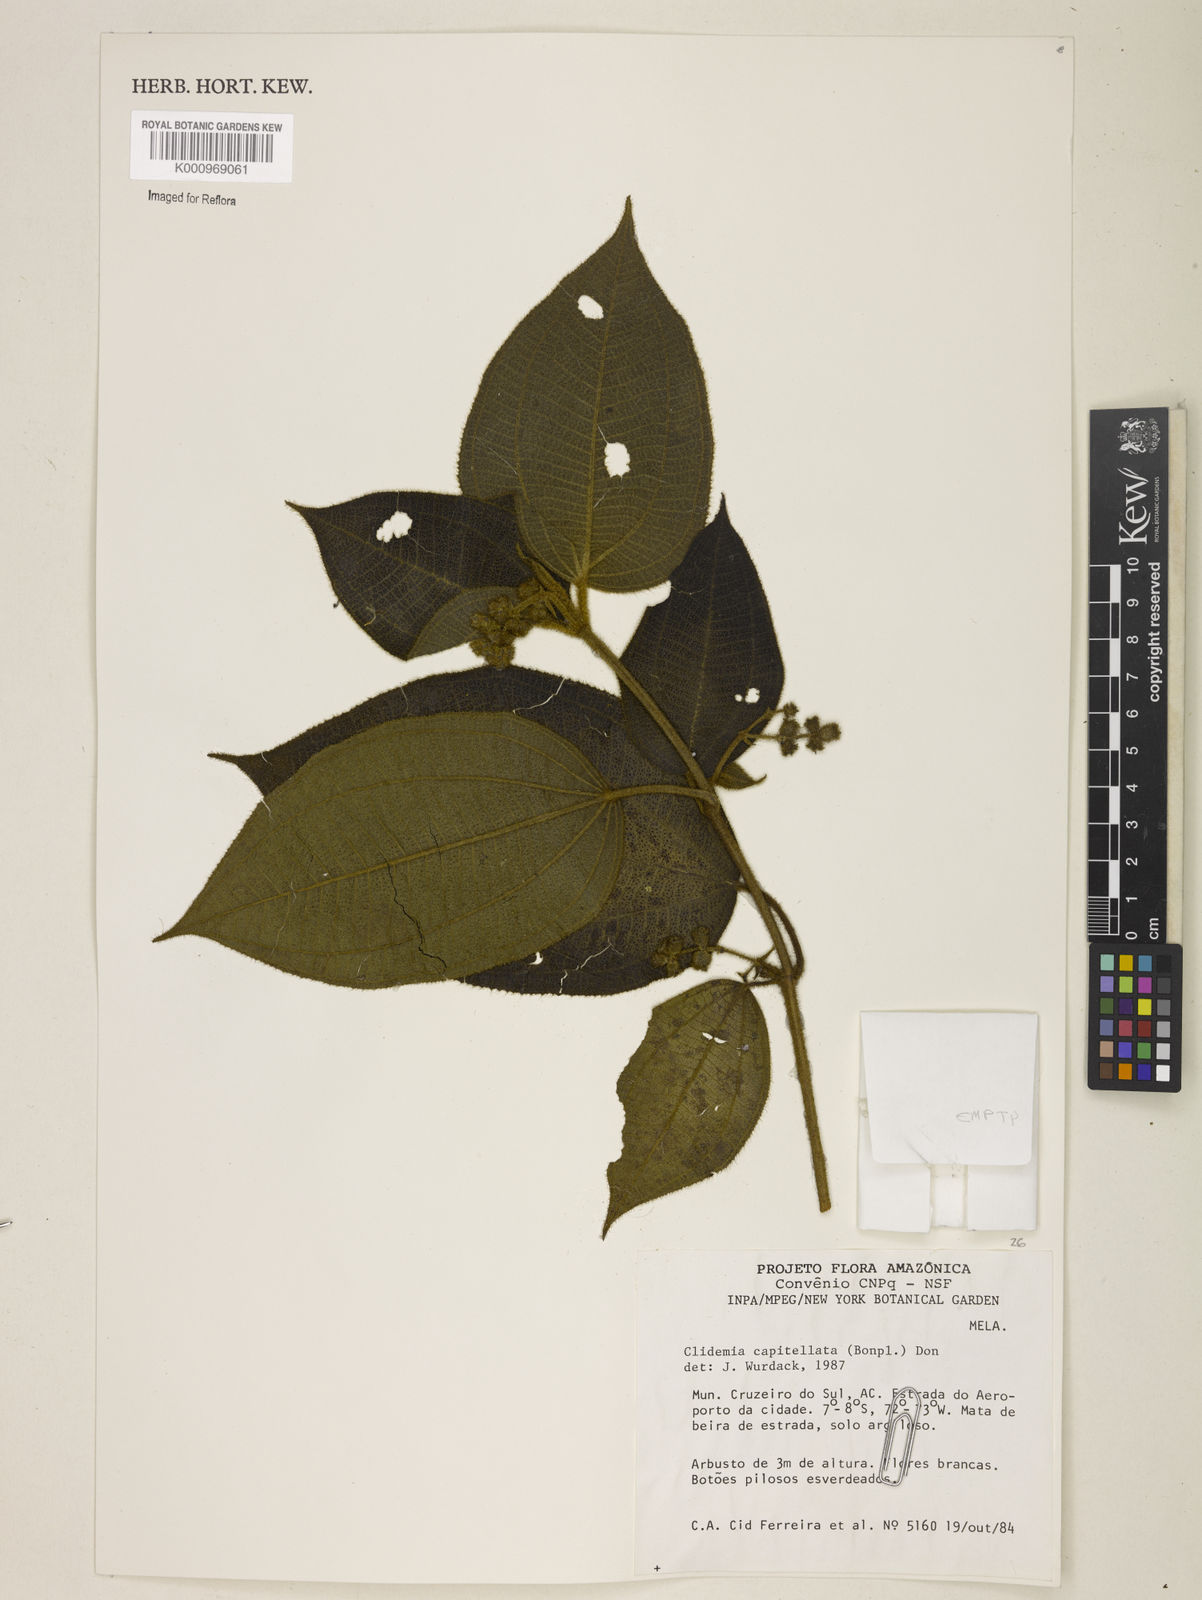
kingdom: Plantae
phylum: Tracheophyta
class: Magnoliopsida
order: Myrtales
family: Melastomataceae
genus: Miconia
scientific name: Miconia dependens
